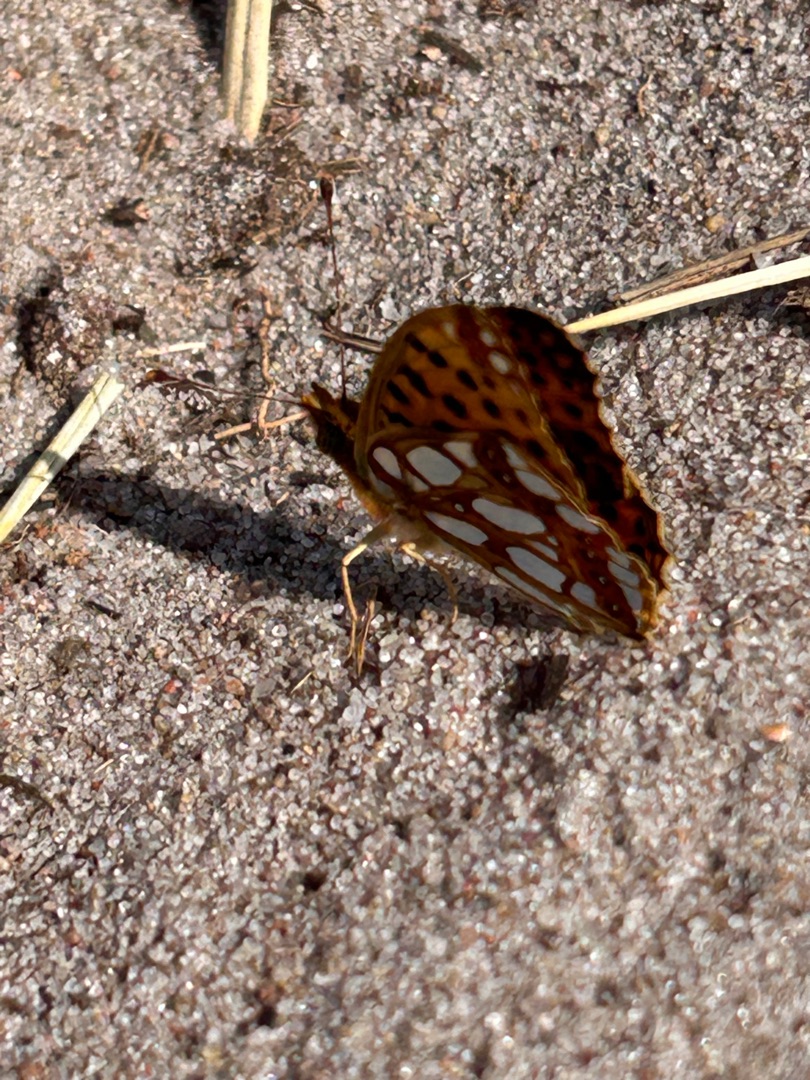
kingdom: Animalia
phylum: Arthropoda
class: Insecta
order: Lepidoptera
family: Nymphalidae
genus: Issoria
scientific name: Issoria lathonia
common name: Storplettet perlemorsommerfugl
